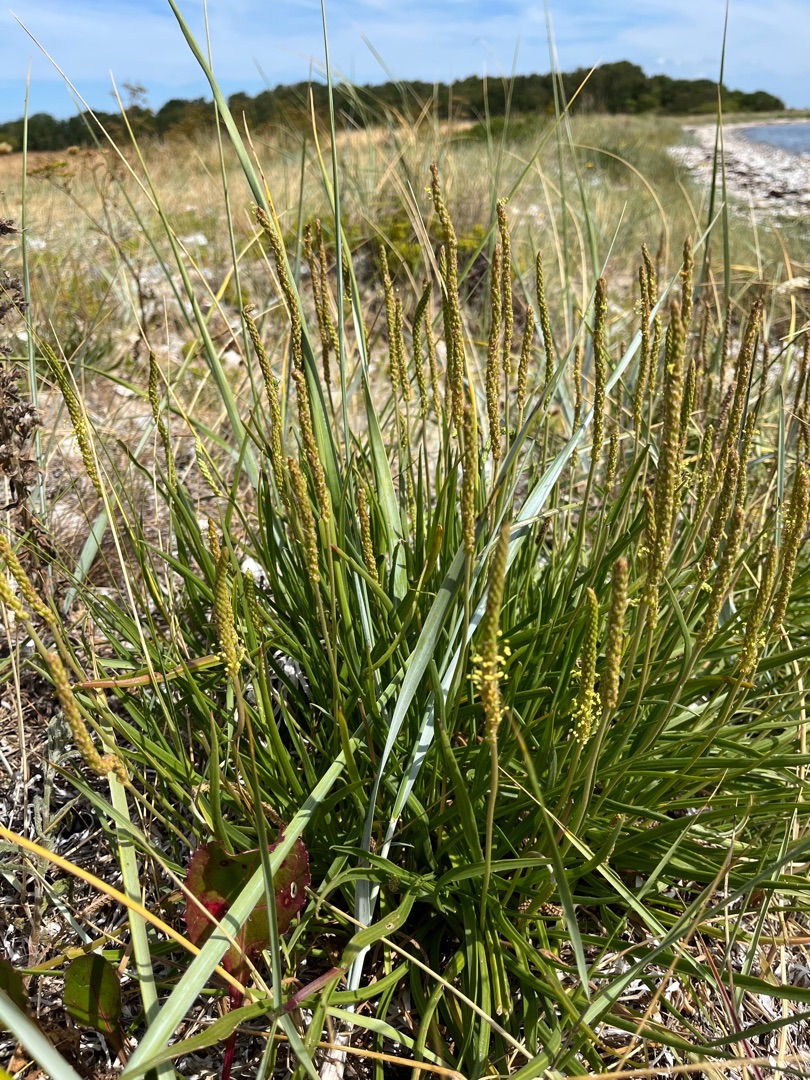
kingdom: Plantae
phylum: Tracheophyta
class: Magnoliopsida
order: Lamiales
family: Plantaginaceae
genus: Plantago
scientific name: Plantago maritima
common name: Strand-vejbred
